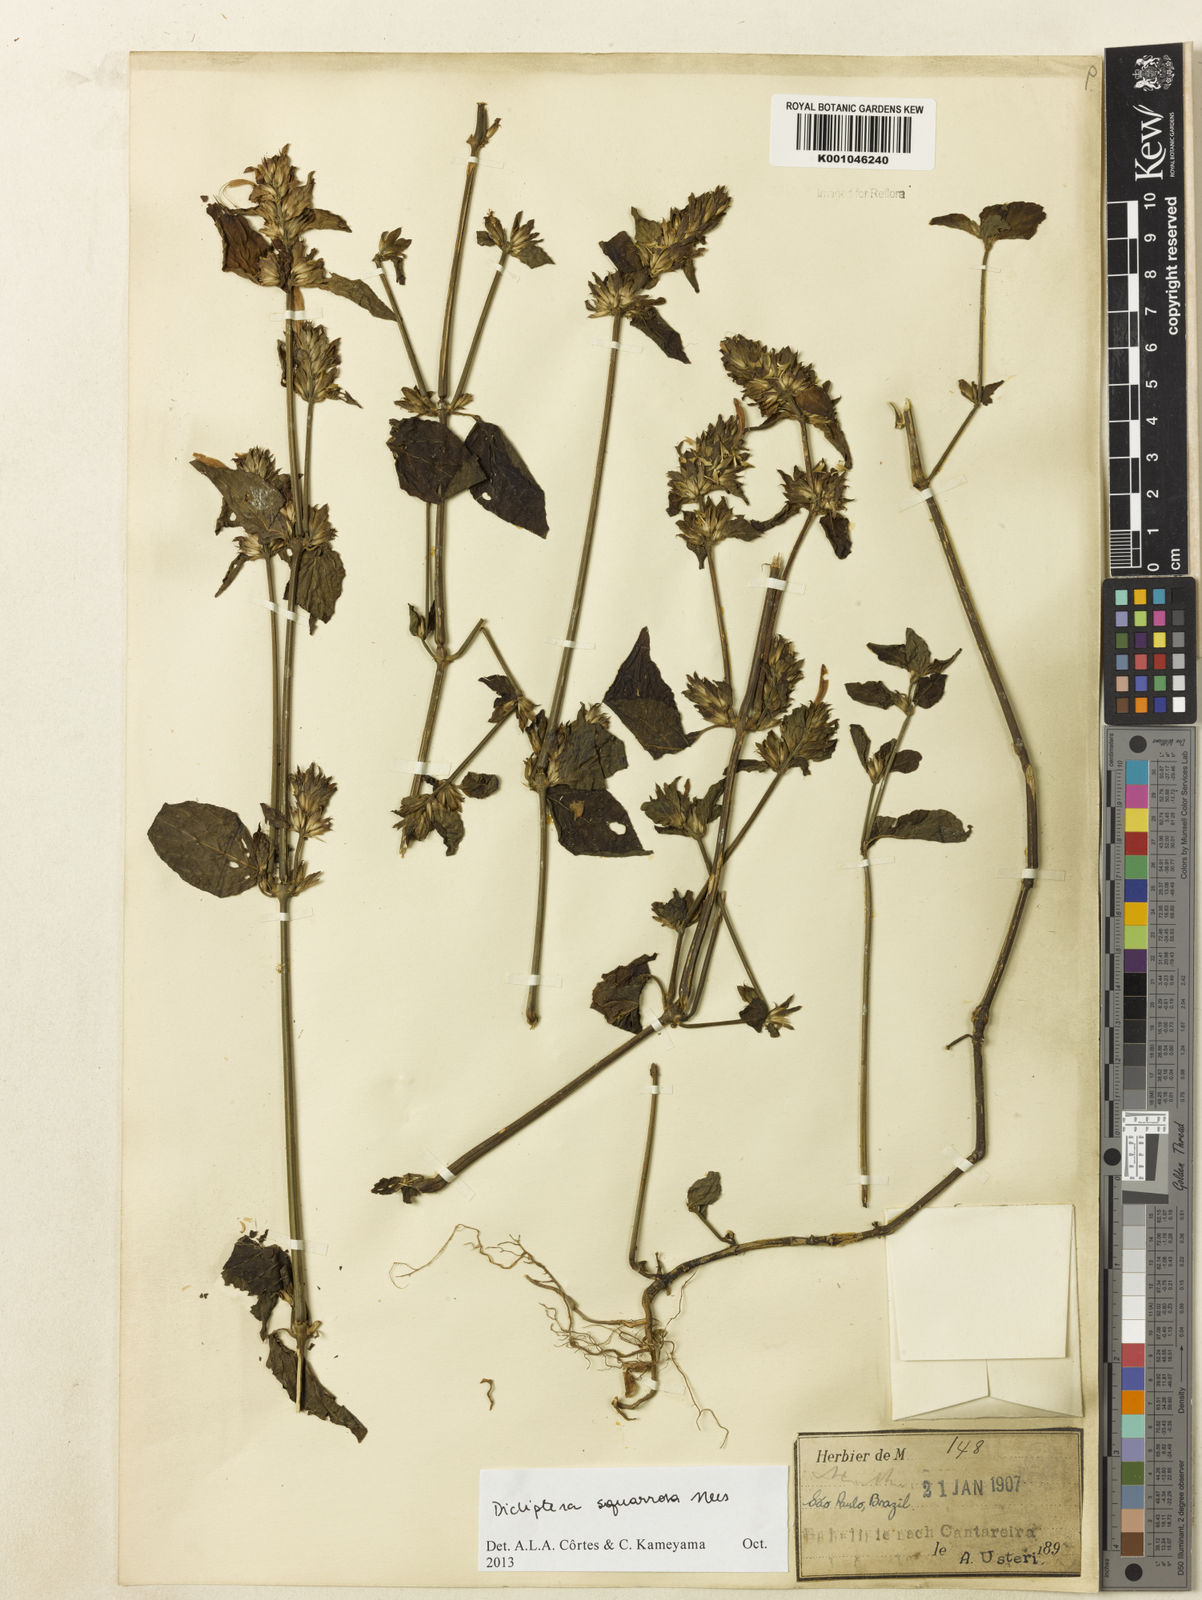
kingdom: Plantae
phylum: Tracheophyta
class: Magnoliopsida
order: Lamiales
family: Acanthaceae
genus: Dicliptera
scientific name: Dicliptera squarrosa
